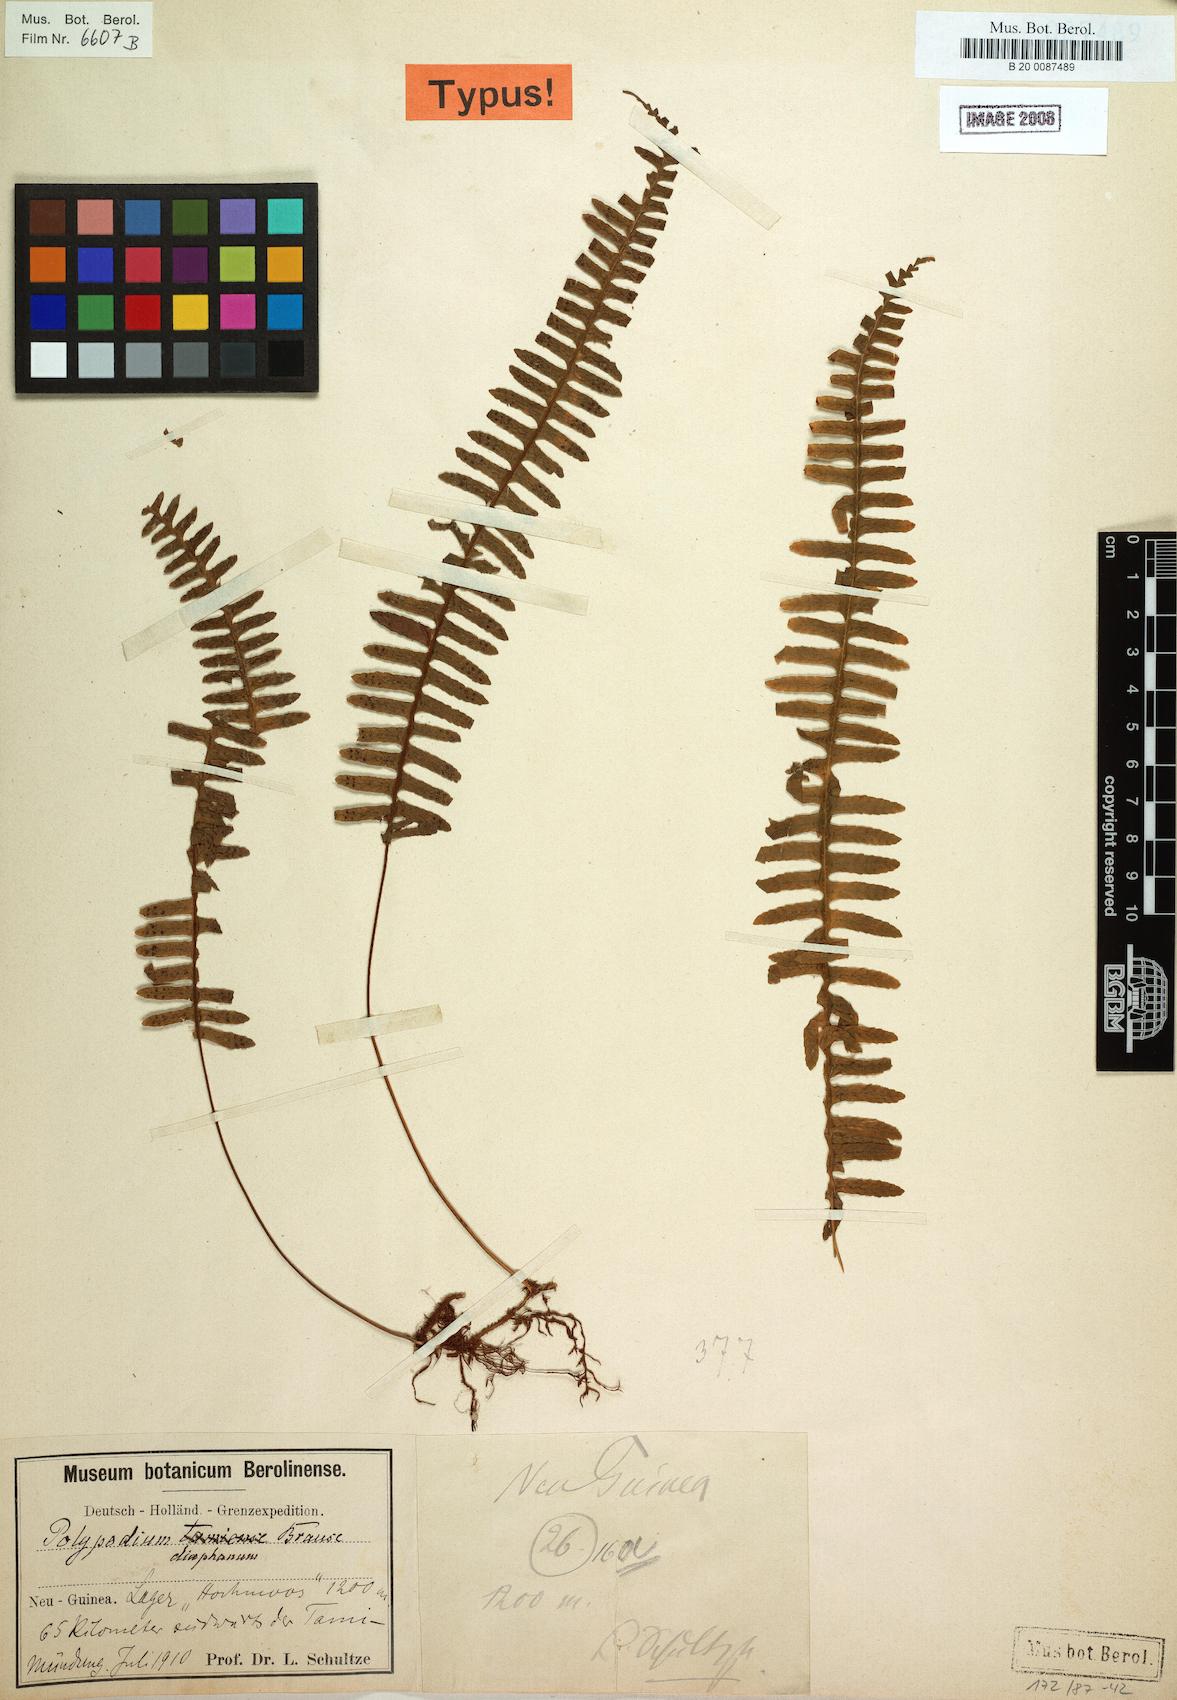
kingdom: Plantae
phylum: Tracheophyta
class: Polypodiopsida
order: Polypodiales
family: Polypodiaceae
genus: Thylacopteris
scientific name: Thylacopteris diaphana
